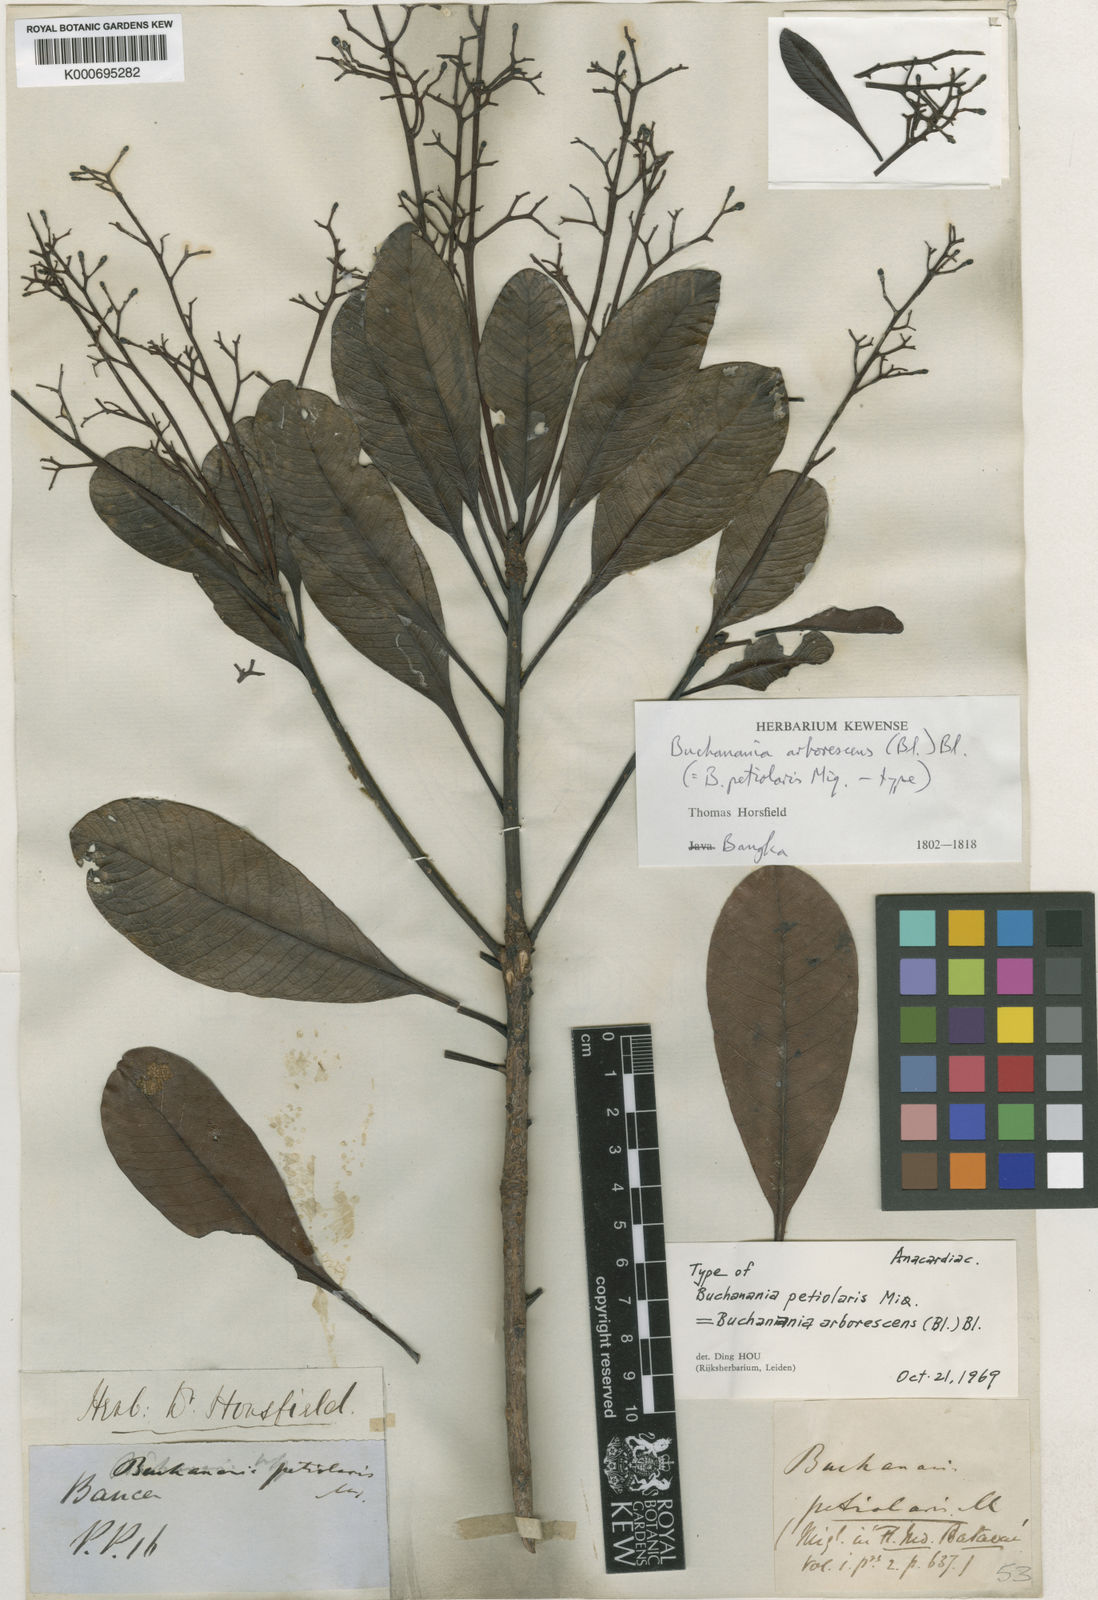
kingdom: Plantae
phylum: Tracheophyta
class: Magnoliopsida
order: Sapindales
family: Anacardiaceae
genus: Buchanania
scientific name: Buchanania arborescens
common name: Sparrow’s mango
